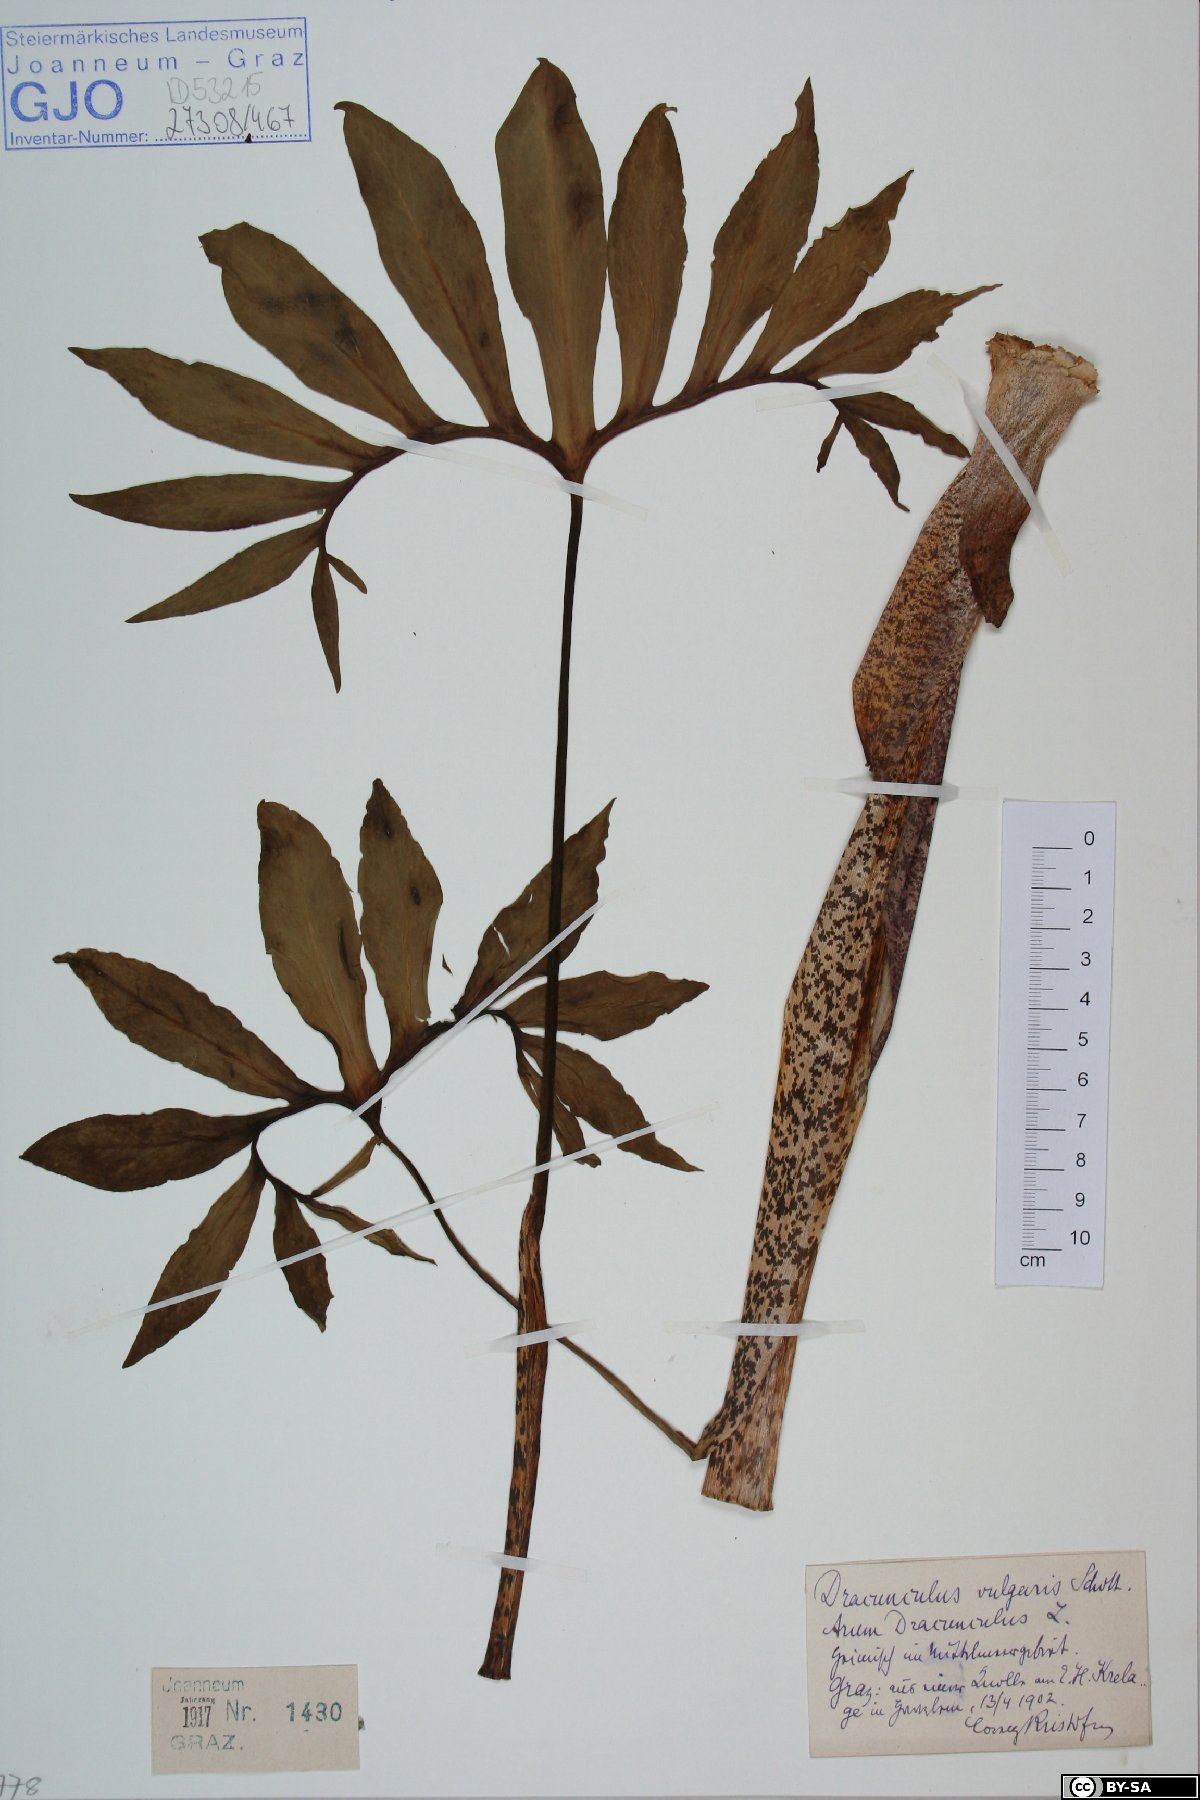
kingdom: Plantae
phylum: Tracheophyta
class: Liliopsida
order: Alismatales
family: Araceae
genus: Dracunculus
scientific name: Dracunculus vulgaris
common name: Dragon arum
